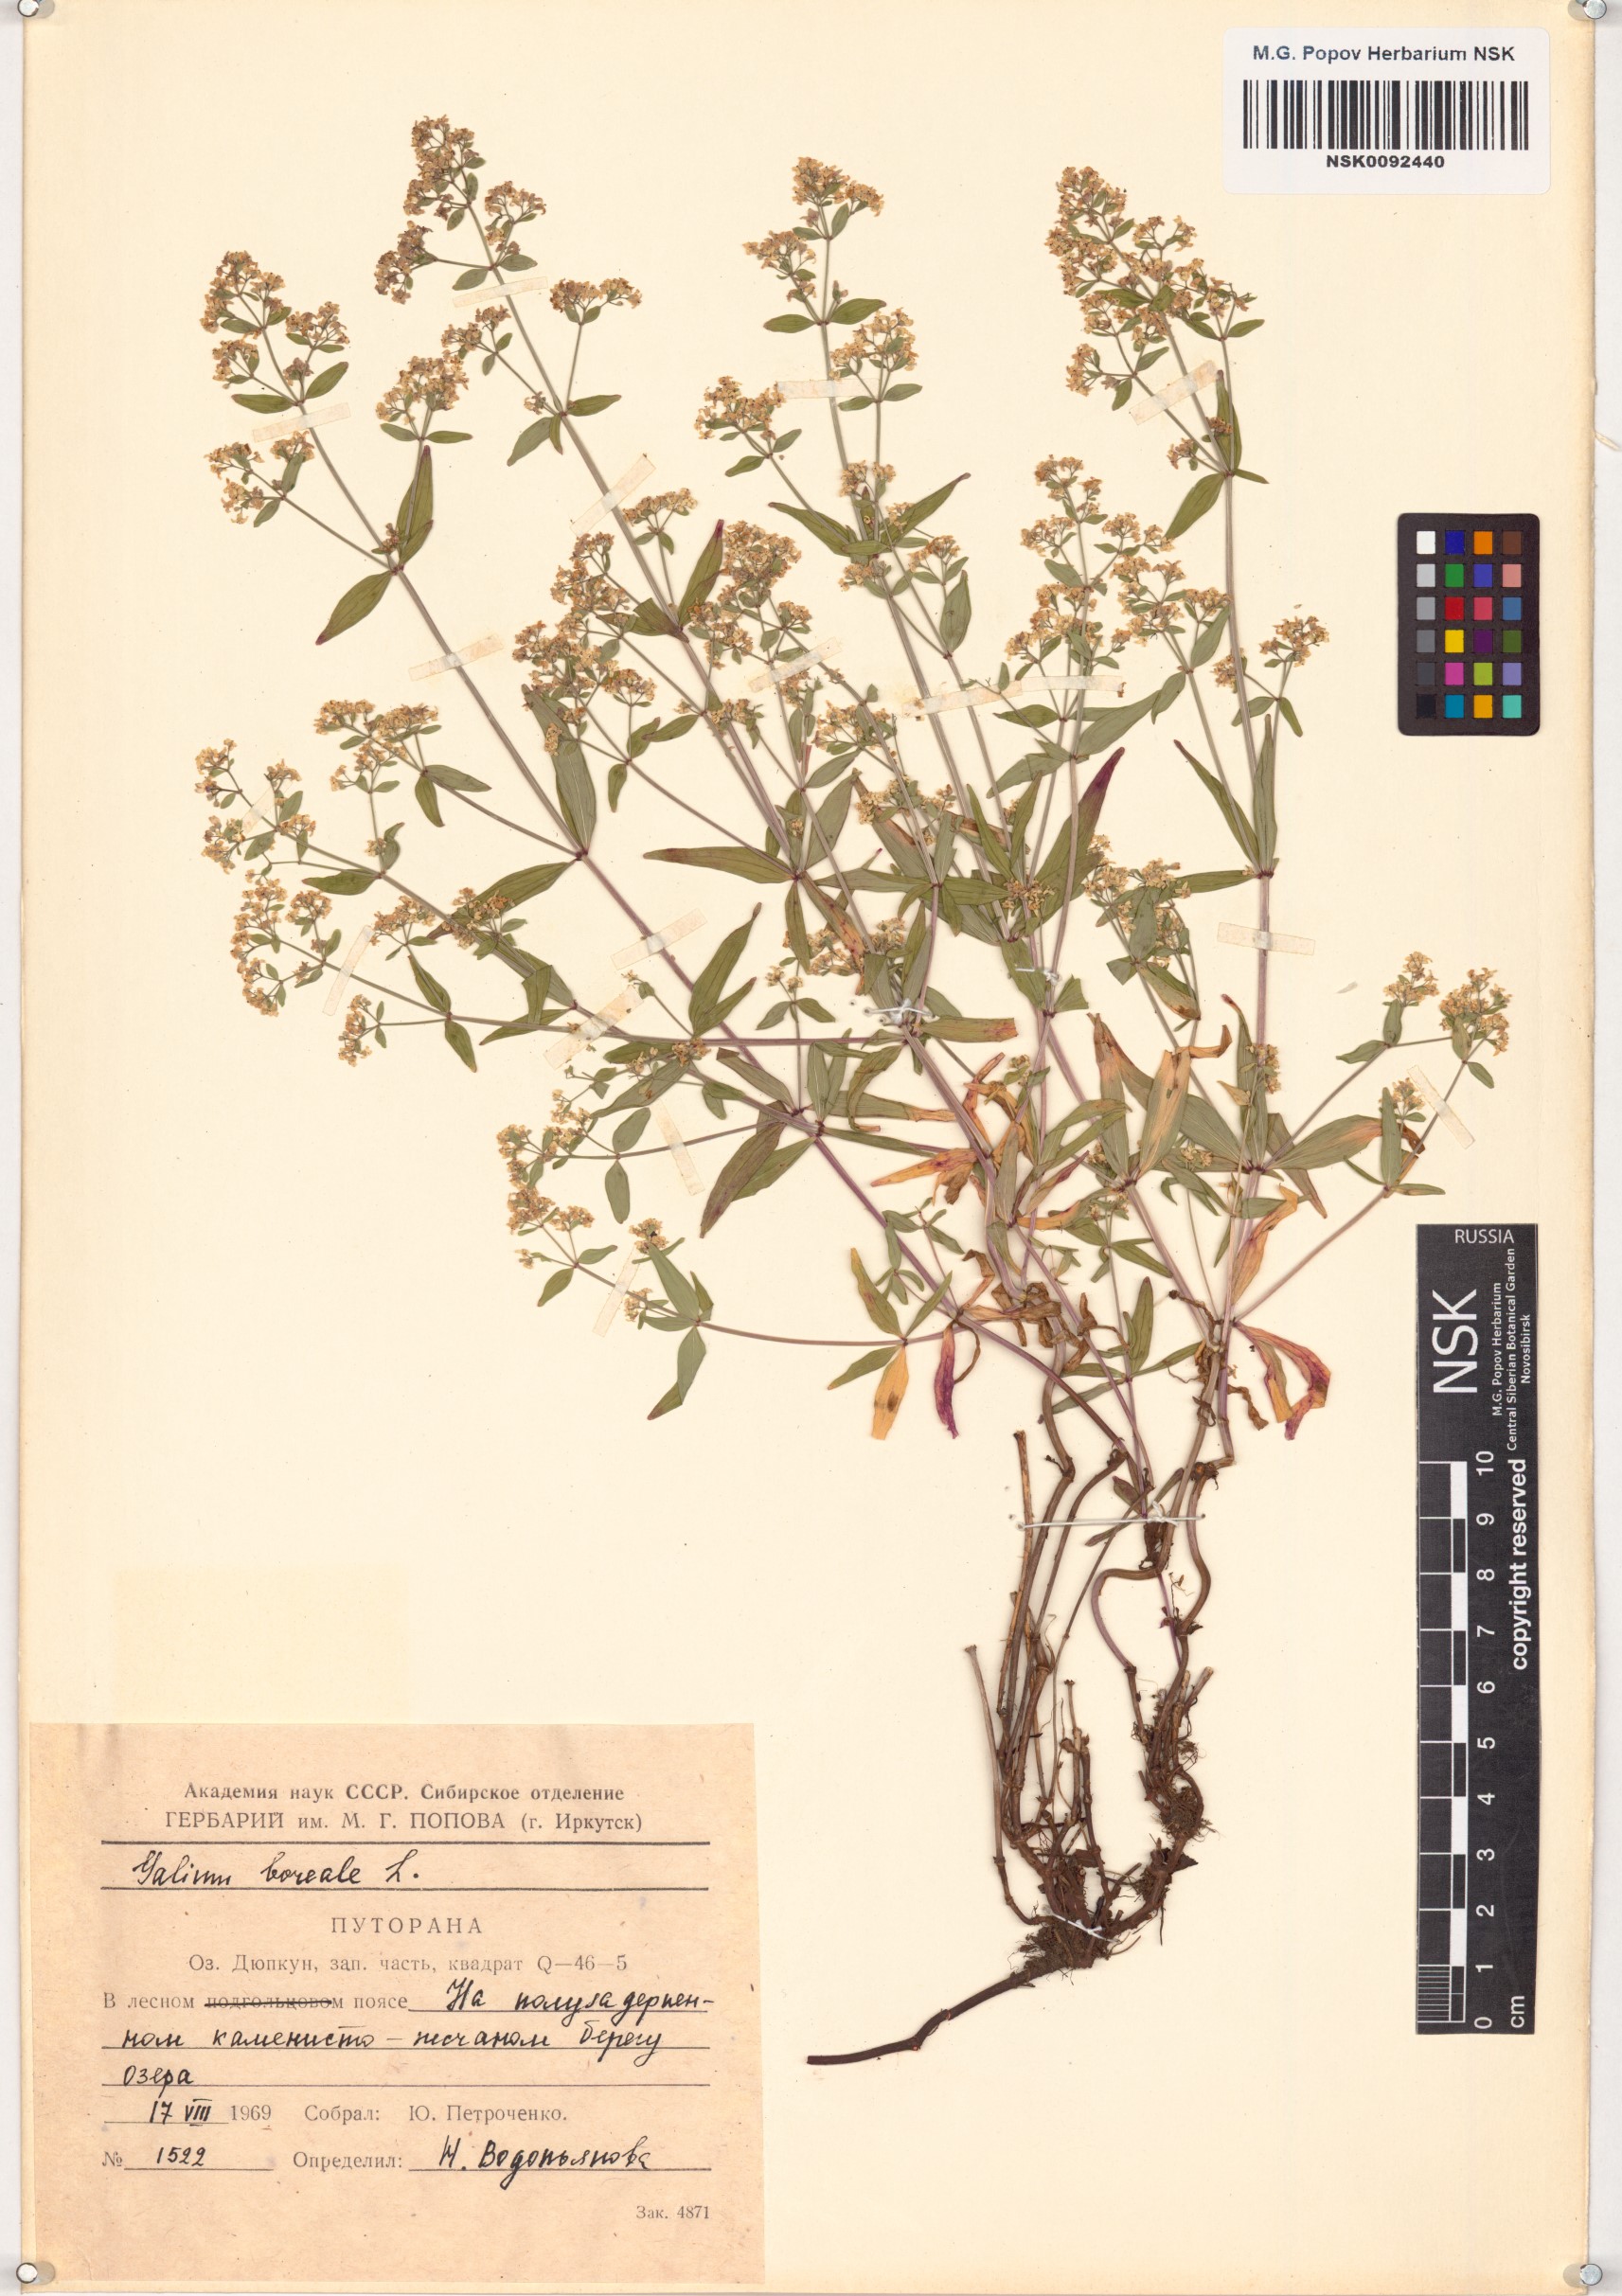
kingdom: Plantae
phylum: Tracheophyta
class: Magnoliopsida
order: Gentianales
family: Rubiaceae
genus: Galium
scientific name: Galium boreale
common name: Northern bedstraw
